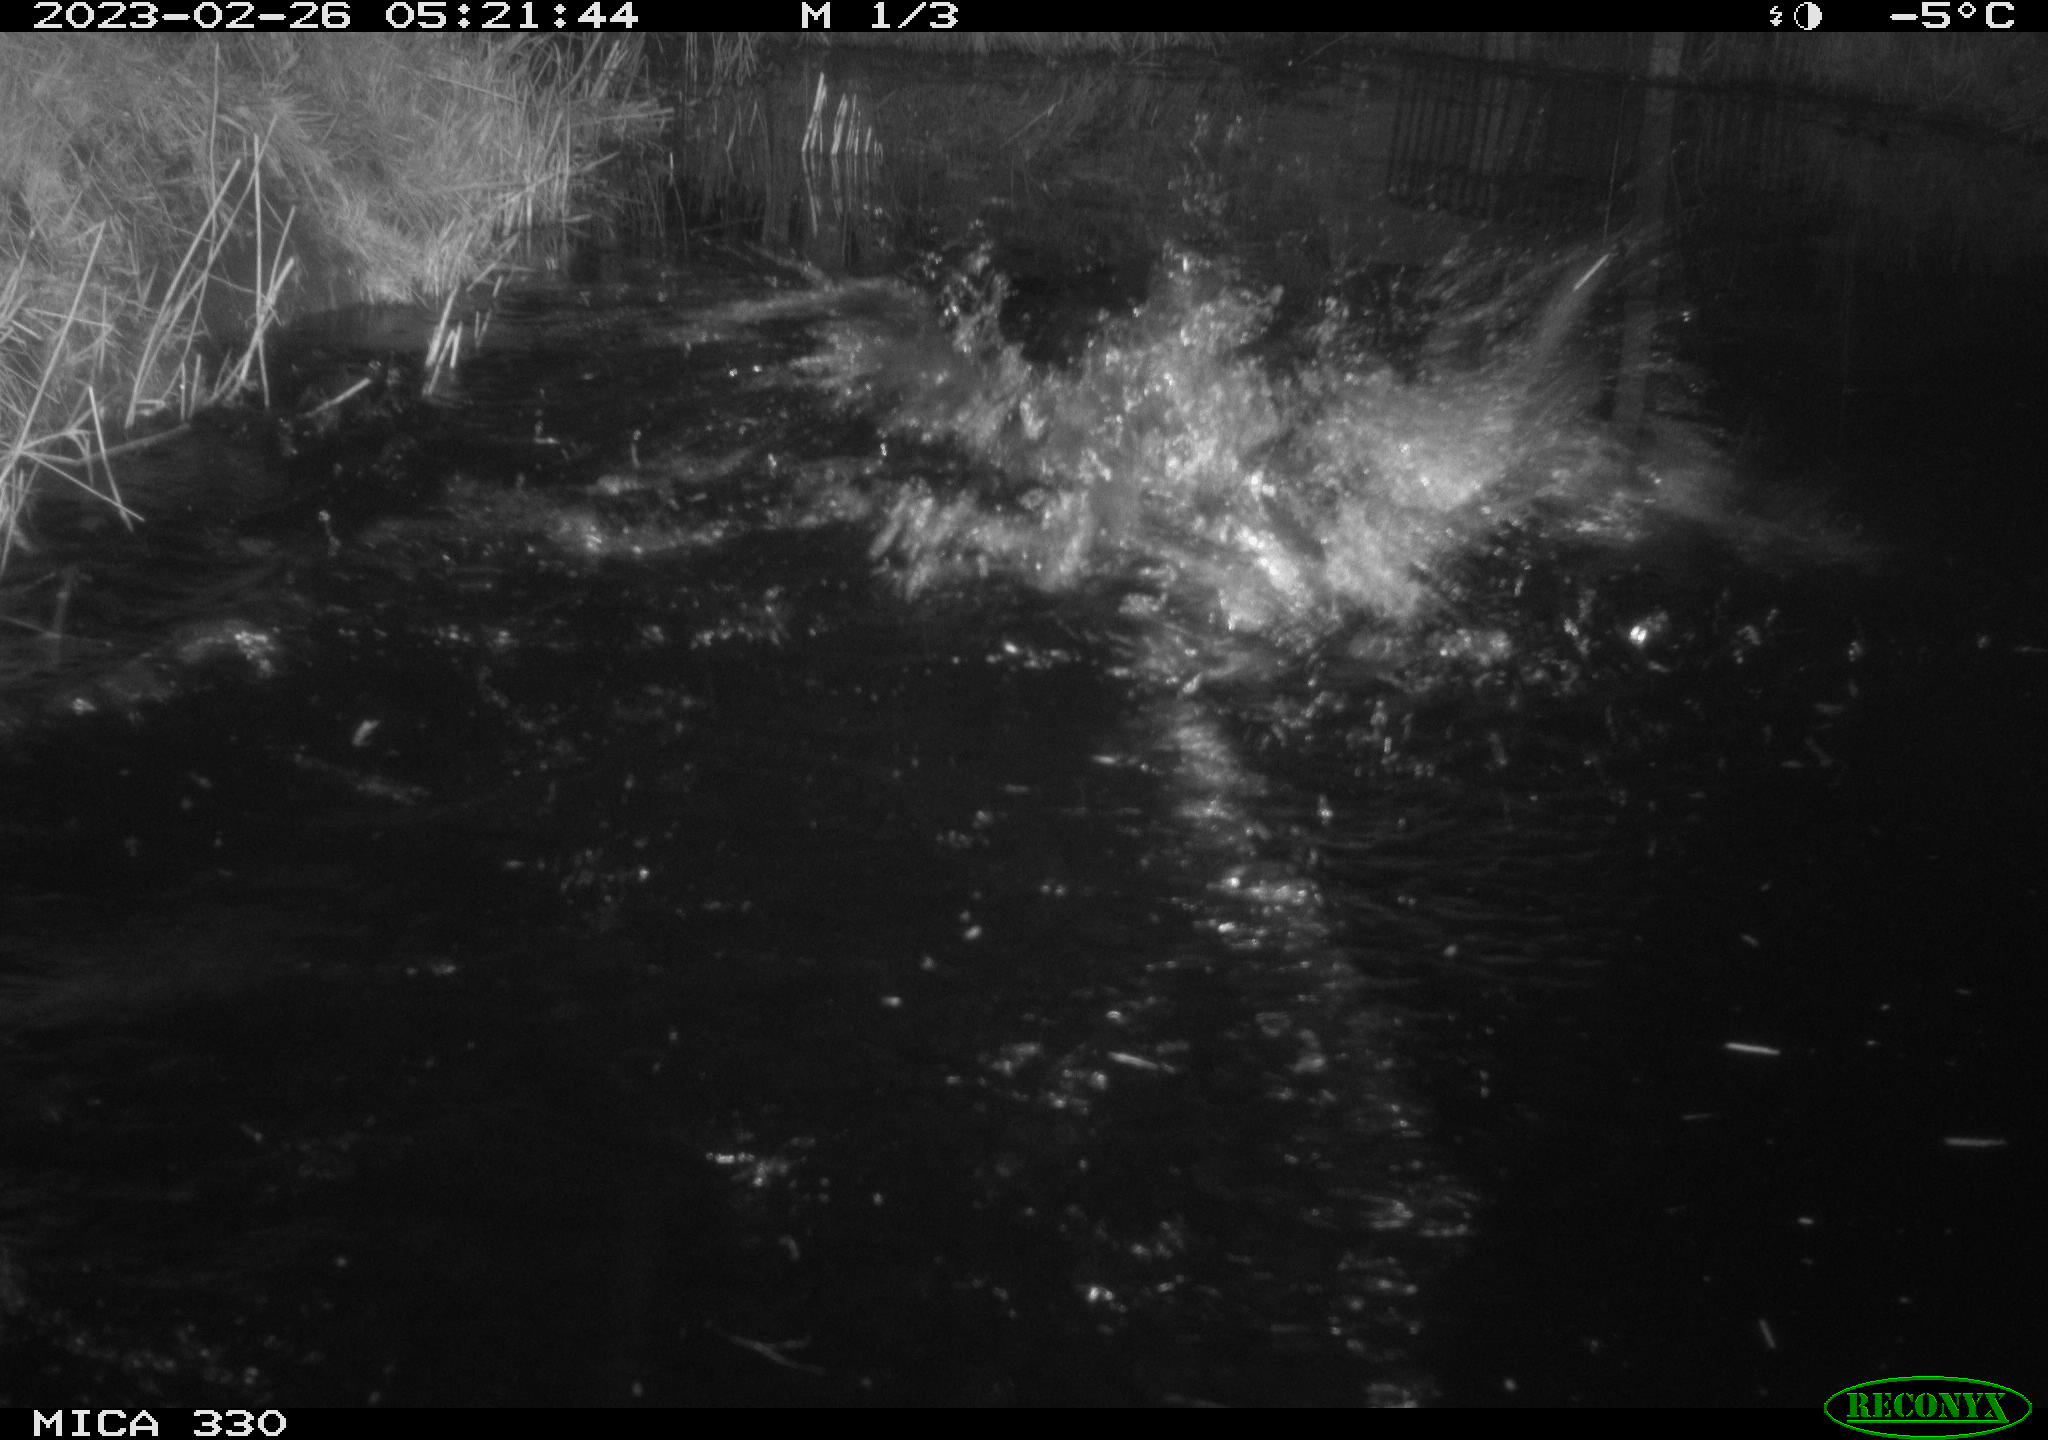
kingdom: Animalia
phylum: Chordata
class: Aves
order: Anseriformes
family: Anatidae
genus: Anas
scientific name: Anas
